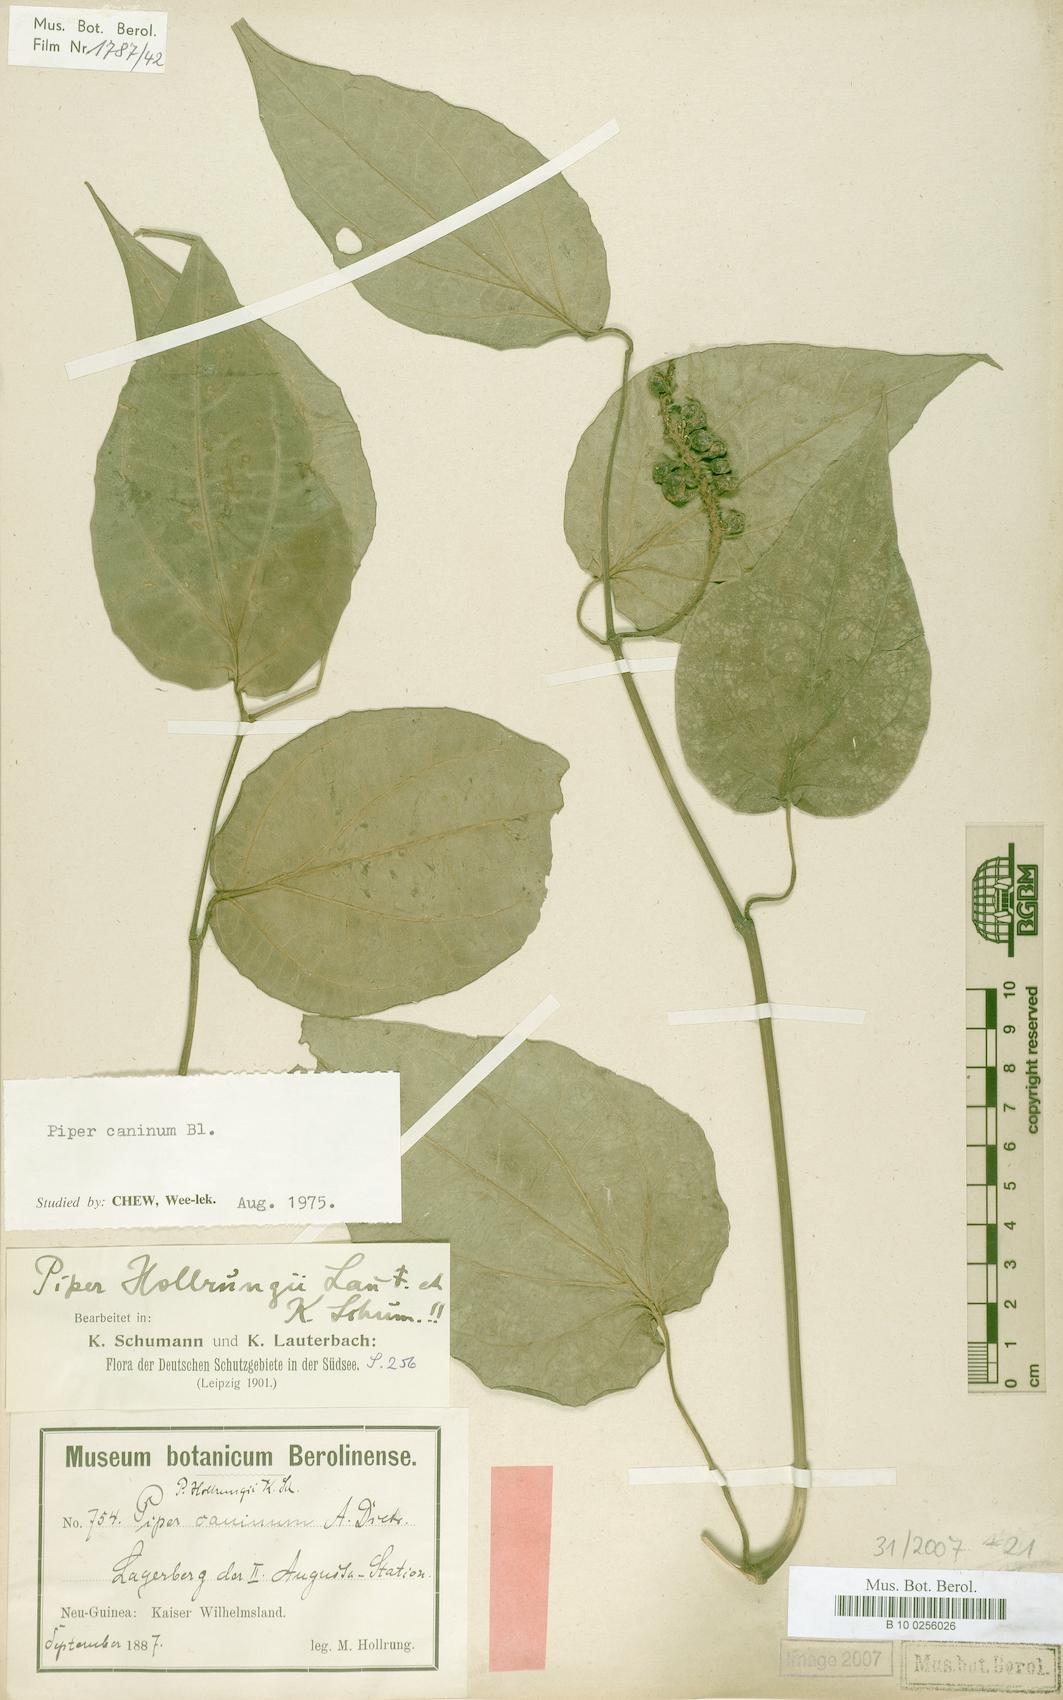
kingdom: Plantae
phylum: Tracheophyta
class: Magnoliopsida
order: Piperales
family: Piperaceae
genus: Piper
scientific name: Piper lanatum
